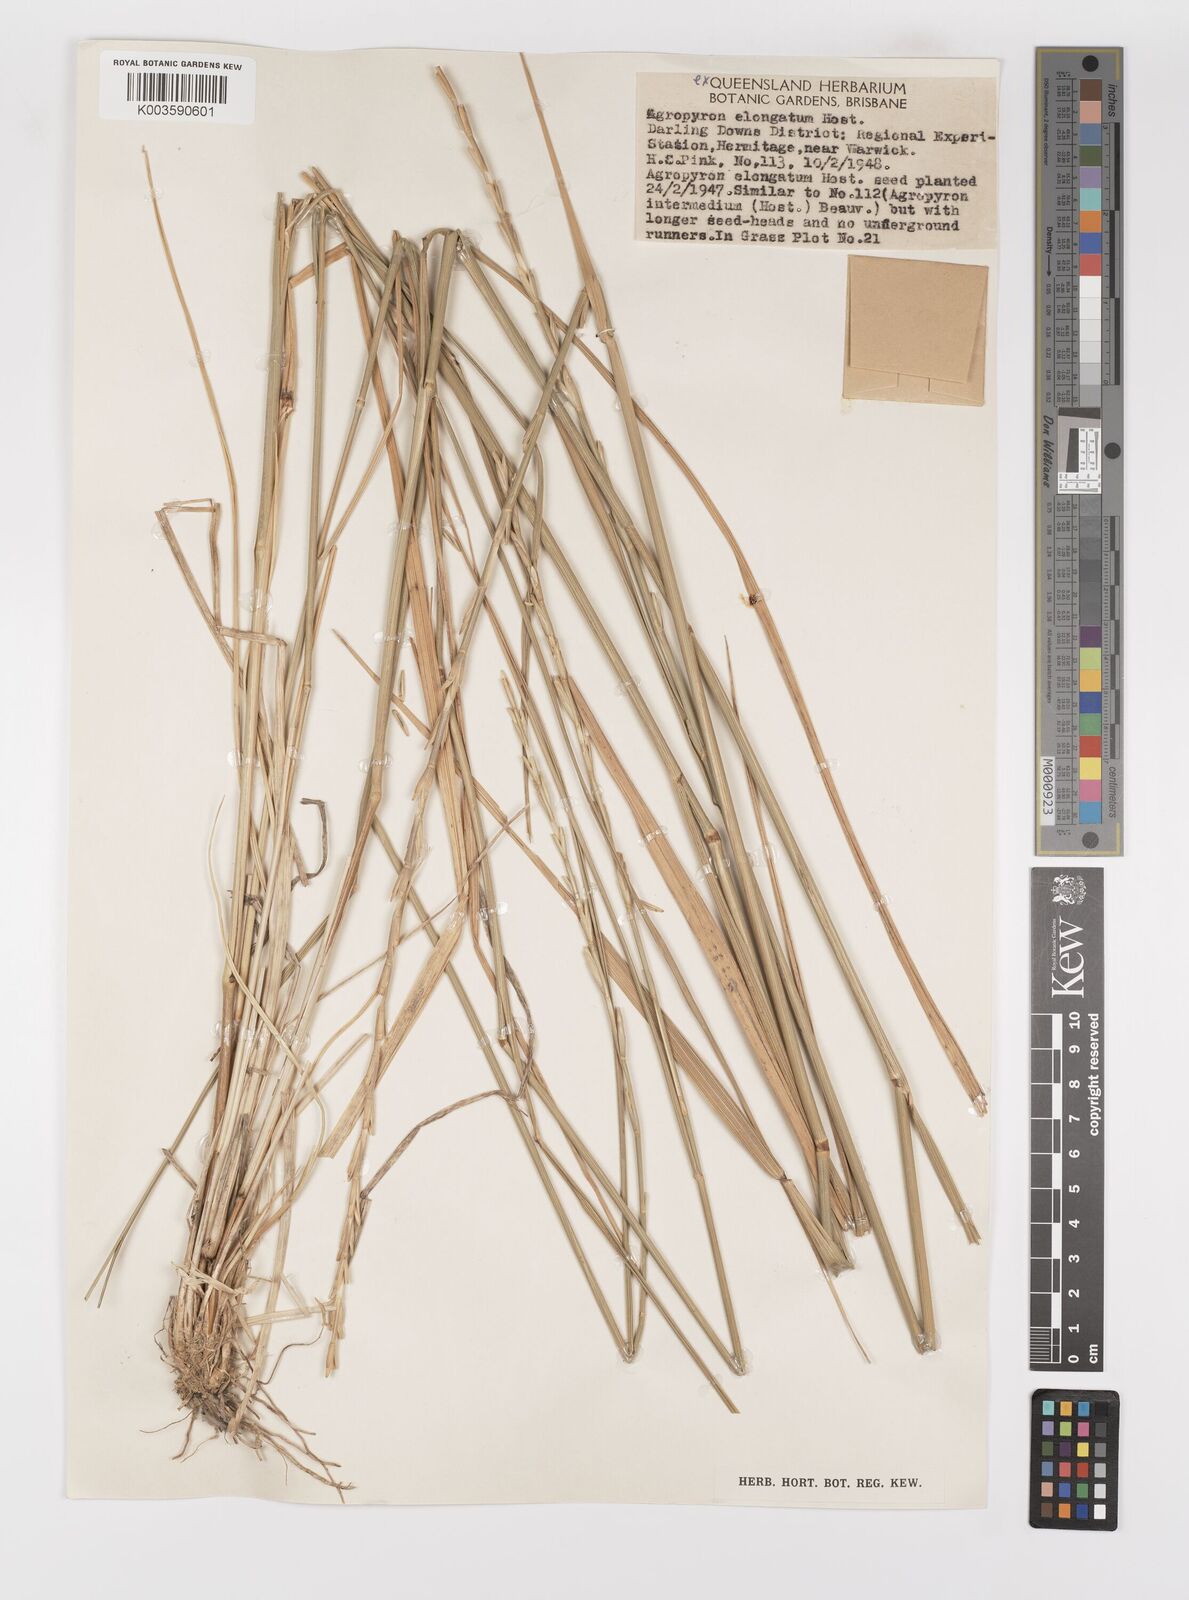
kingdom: Plantae
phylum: Tracheophyta
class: Liliopsida
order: Poales
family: Poaceae
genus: Thinopyrum
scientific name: Thinopyrum elongatum
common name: Tall wheatgrass
